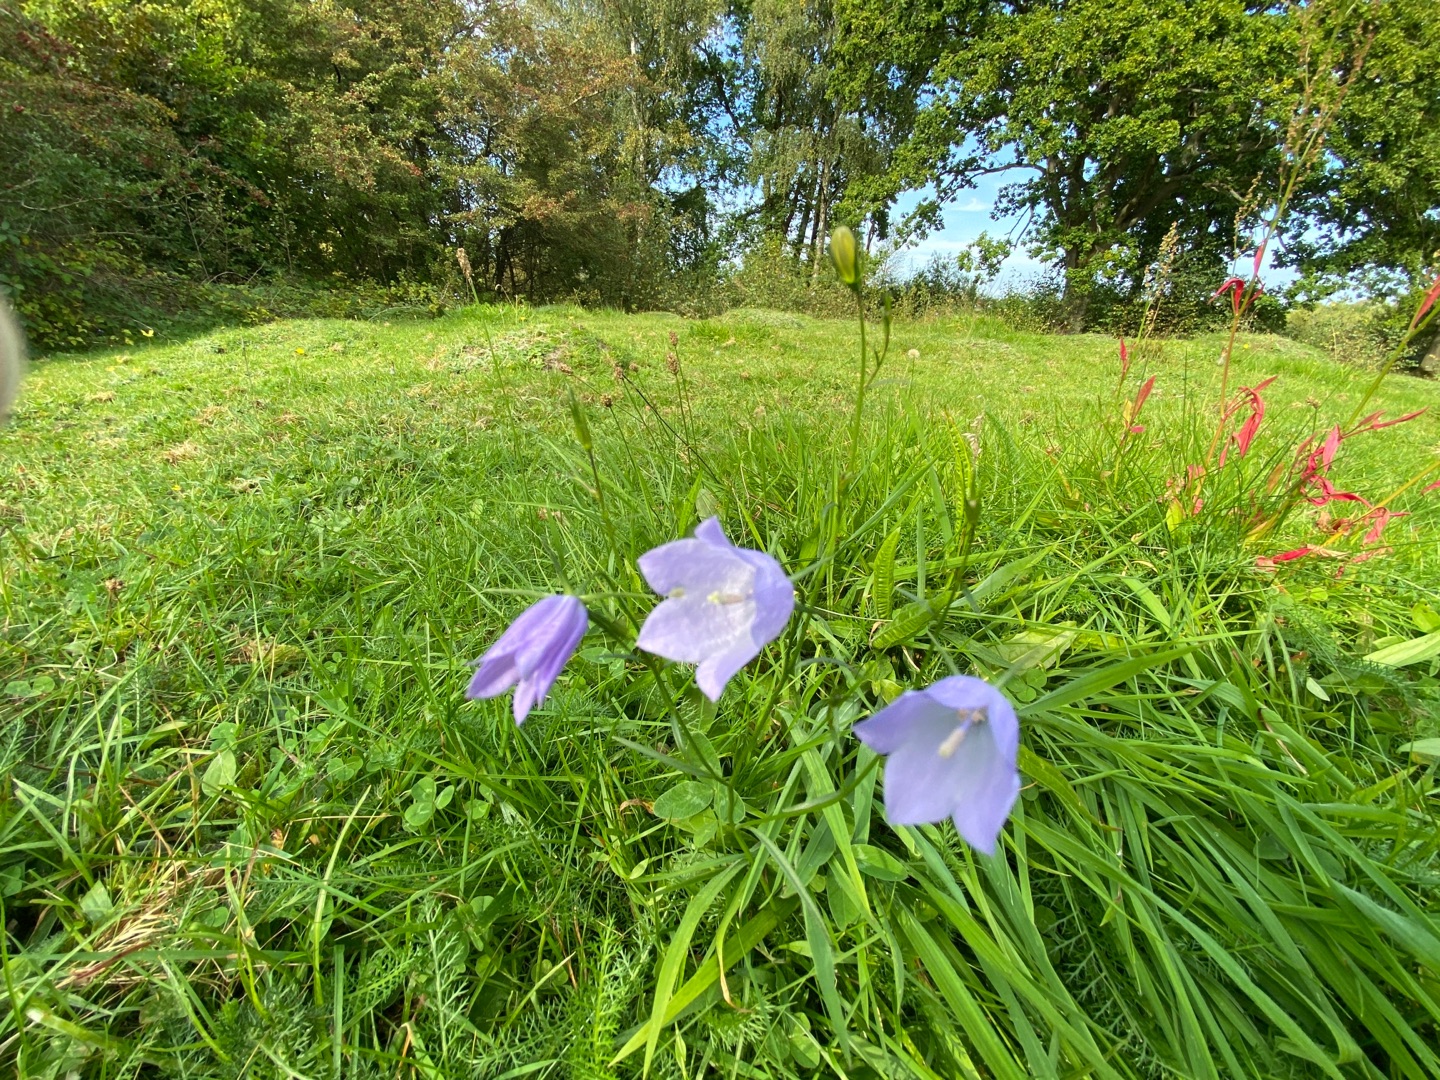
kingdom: Plantae
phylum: Tracheophyta
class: Magnoliopsida
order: Asterales
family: Campanulaceae
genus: Campanula
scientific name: Campanula rotundifolia
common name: Liden klokke
